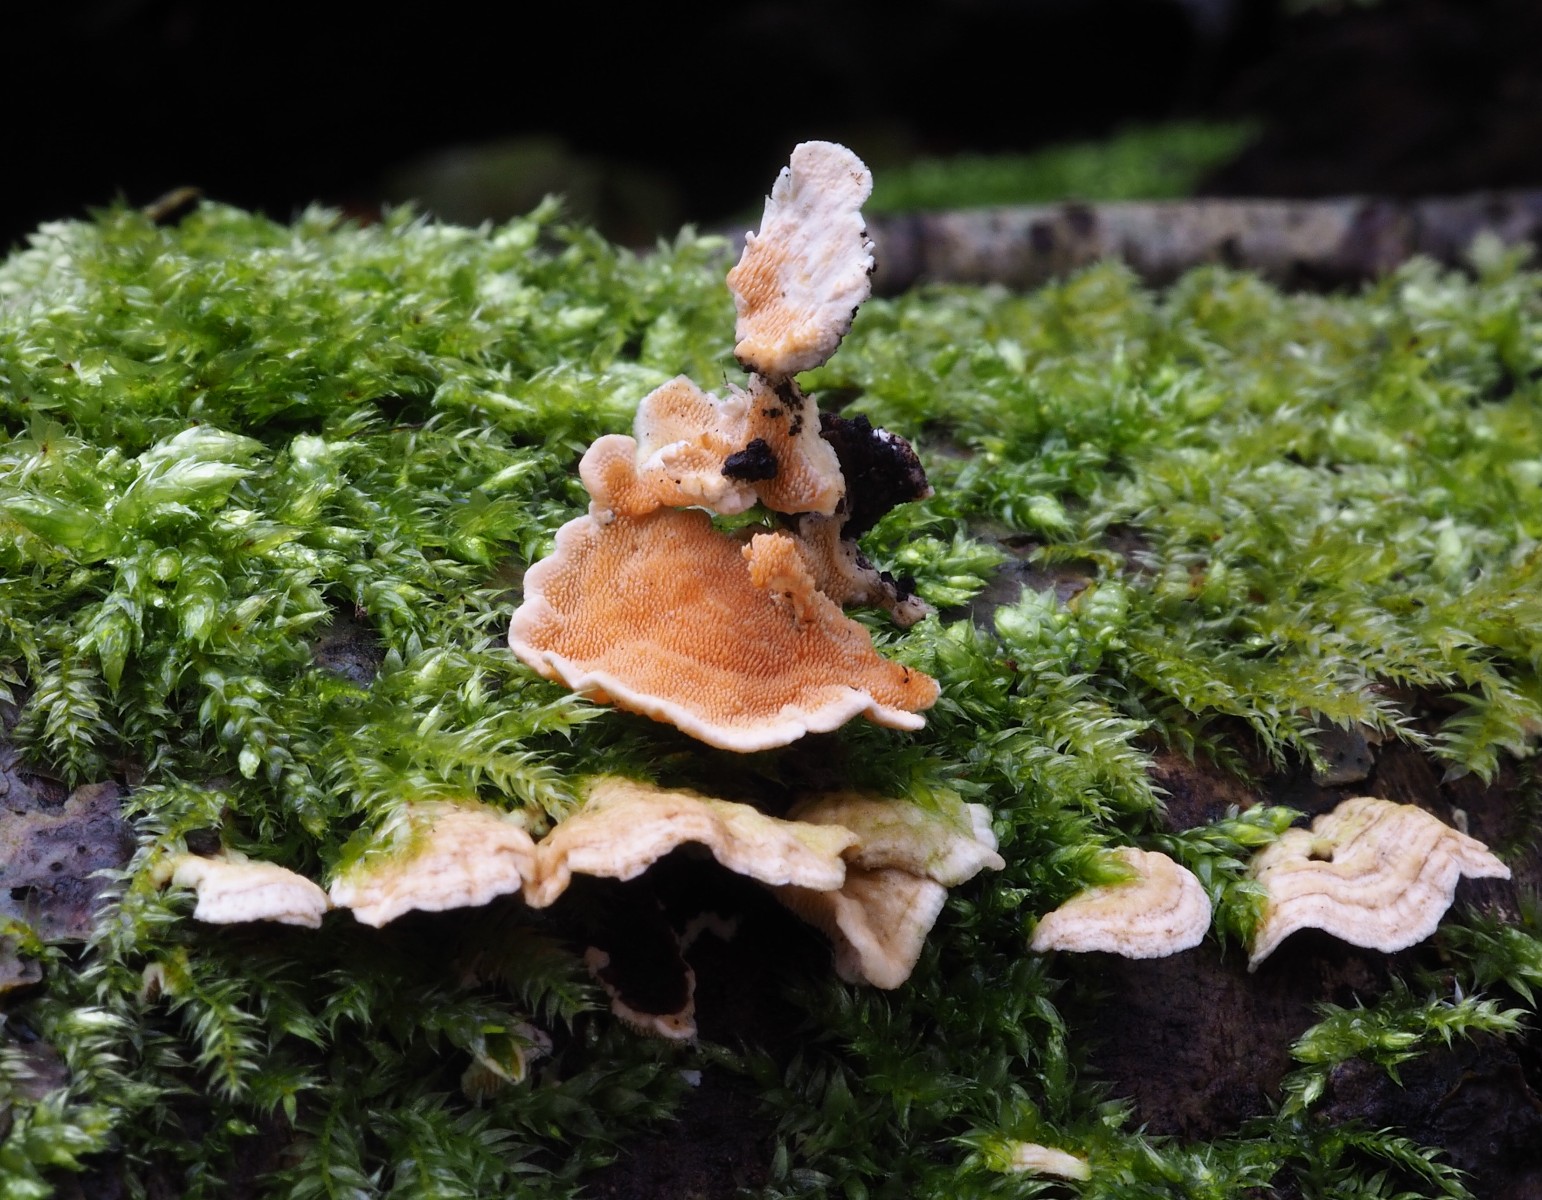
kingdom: Fungi
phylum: Basidiomycota
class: Agaricomycetes
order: Polyporales
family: Steccherinaceae
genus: Steccherinum
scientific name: Steccherinum ochraceum
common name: almindelig skønpig
